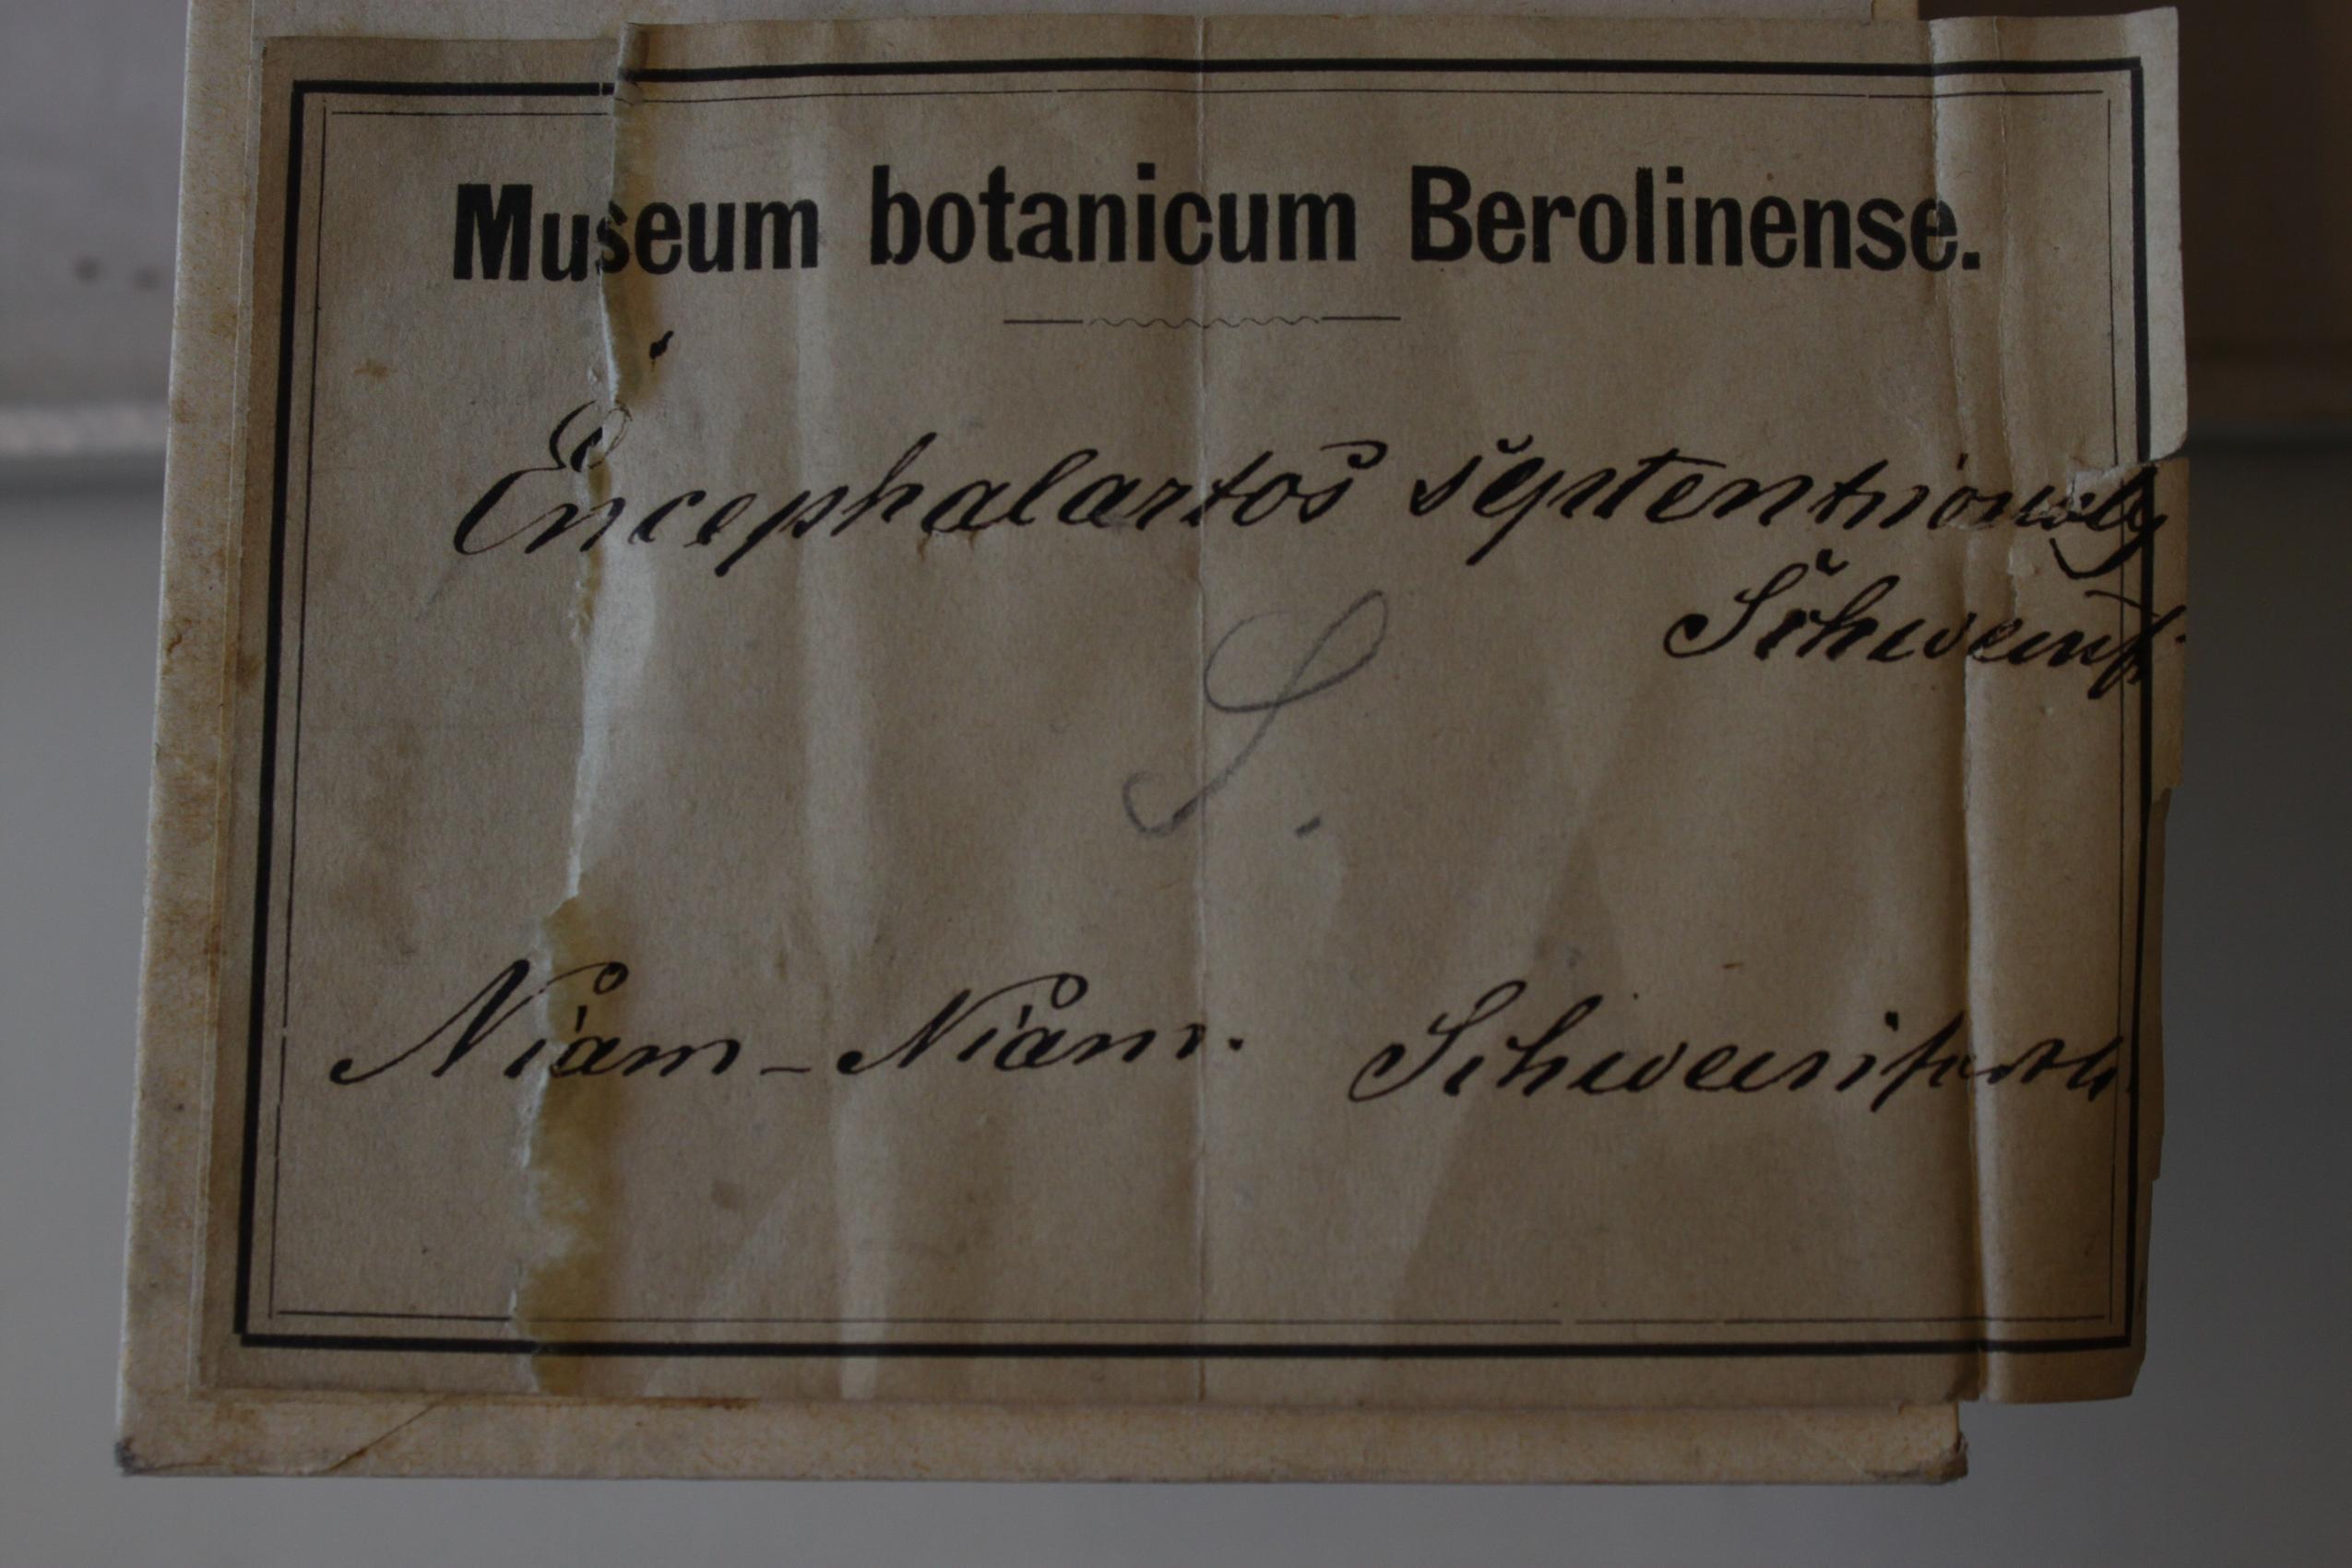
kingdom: Plantae
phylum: Tracheophyta
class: Cycadopsida
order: Cycadales
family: Zamiaceae
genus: Encephalartos
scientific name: Encephalartos septentrionalis
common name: Nile cycad
